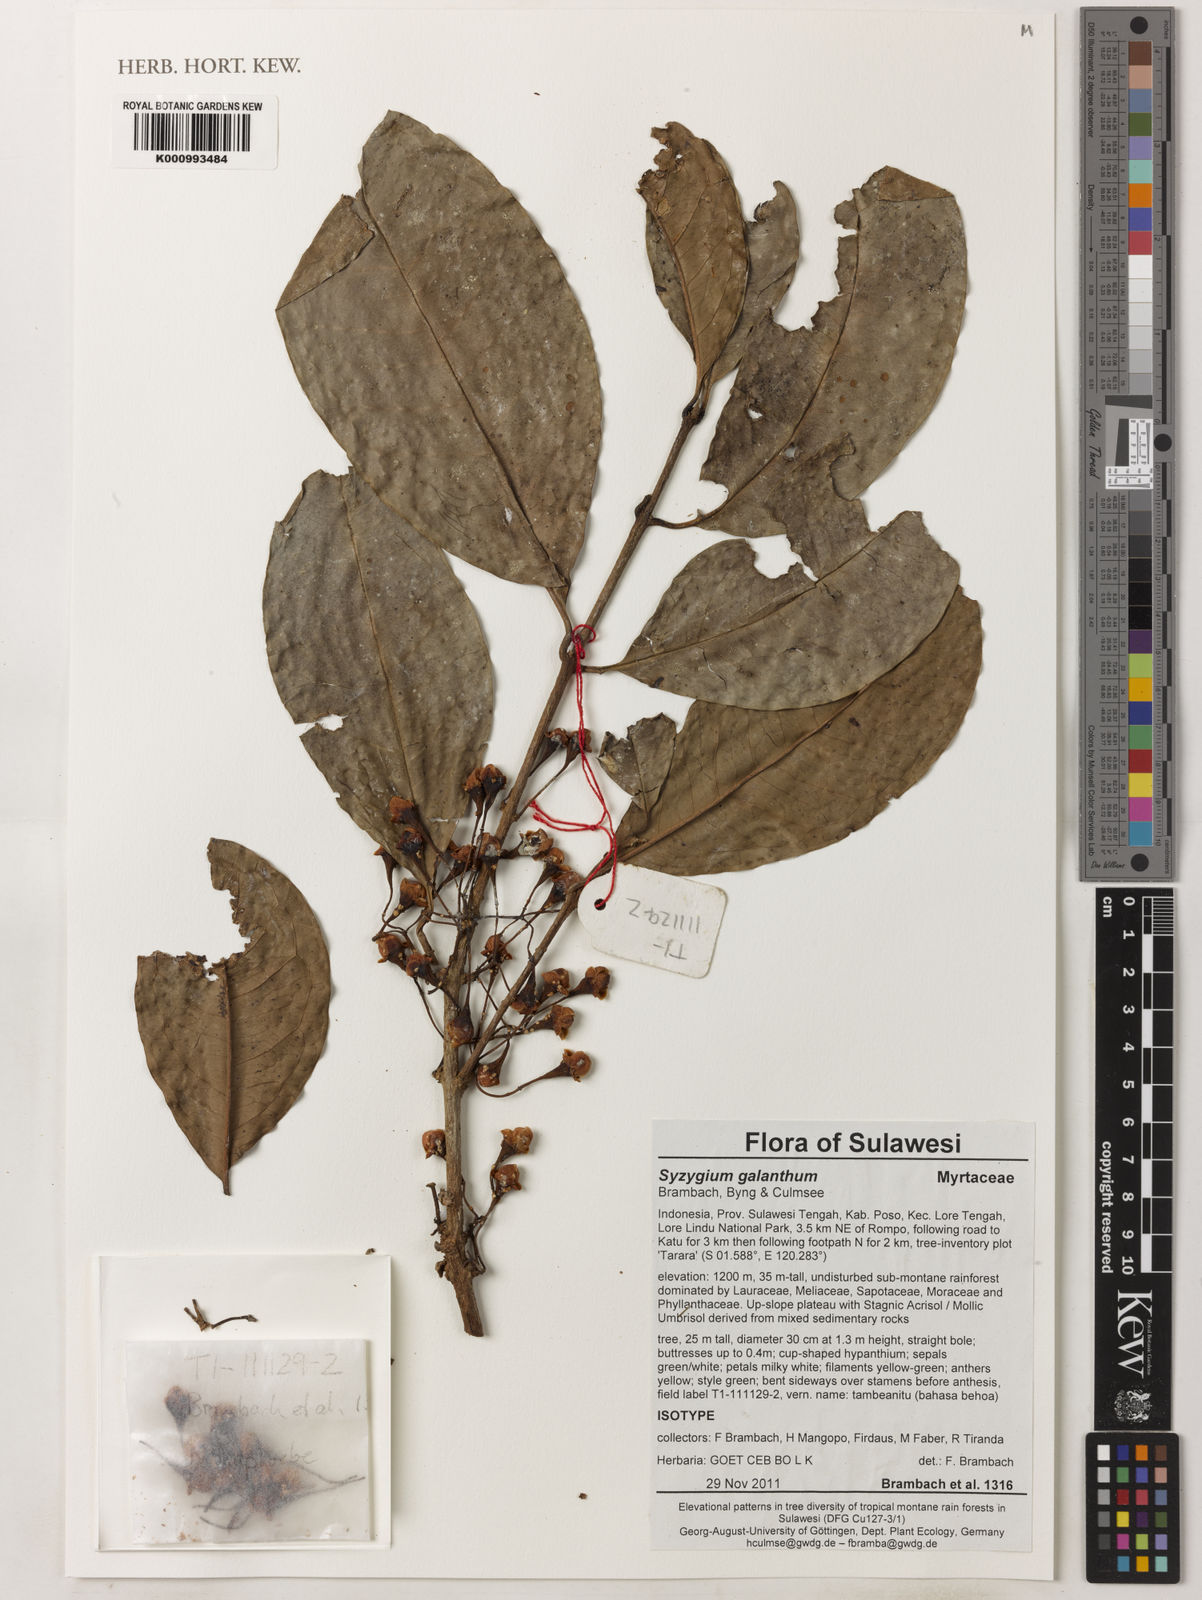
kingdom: Plantae
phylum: Tracheophyta
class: Magnoliopsida
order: Myrtales
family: Myrtaceae
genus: Syzygium
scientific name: Syzygium galanthum
